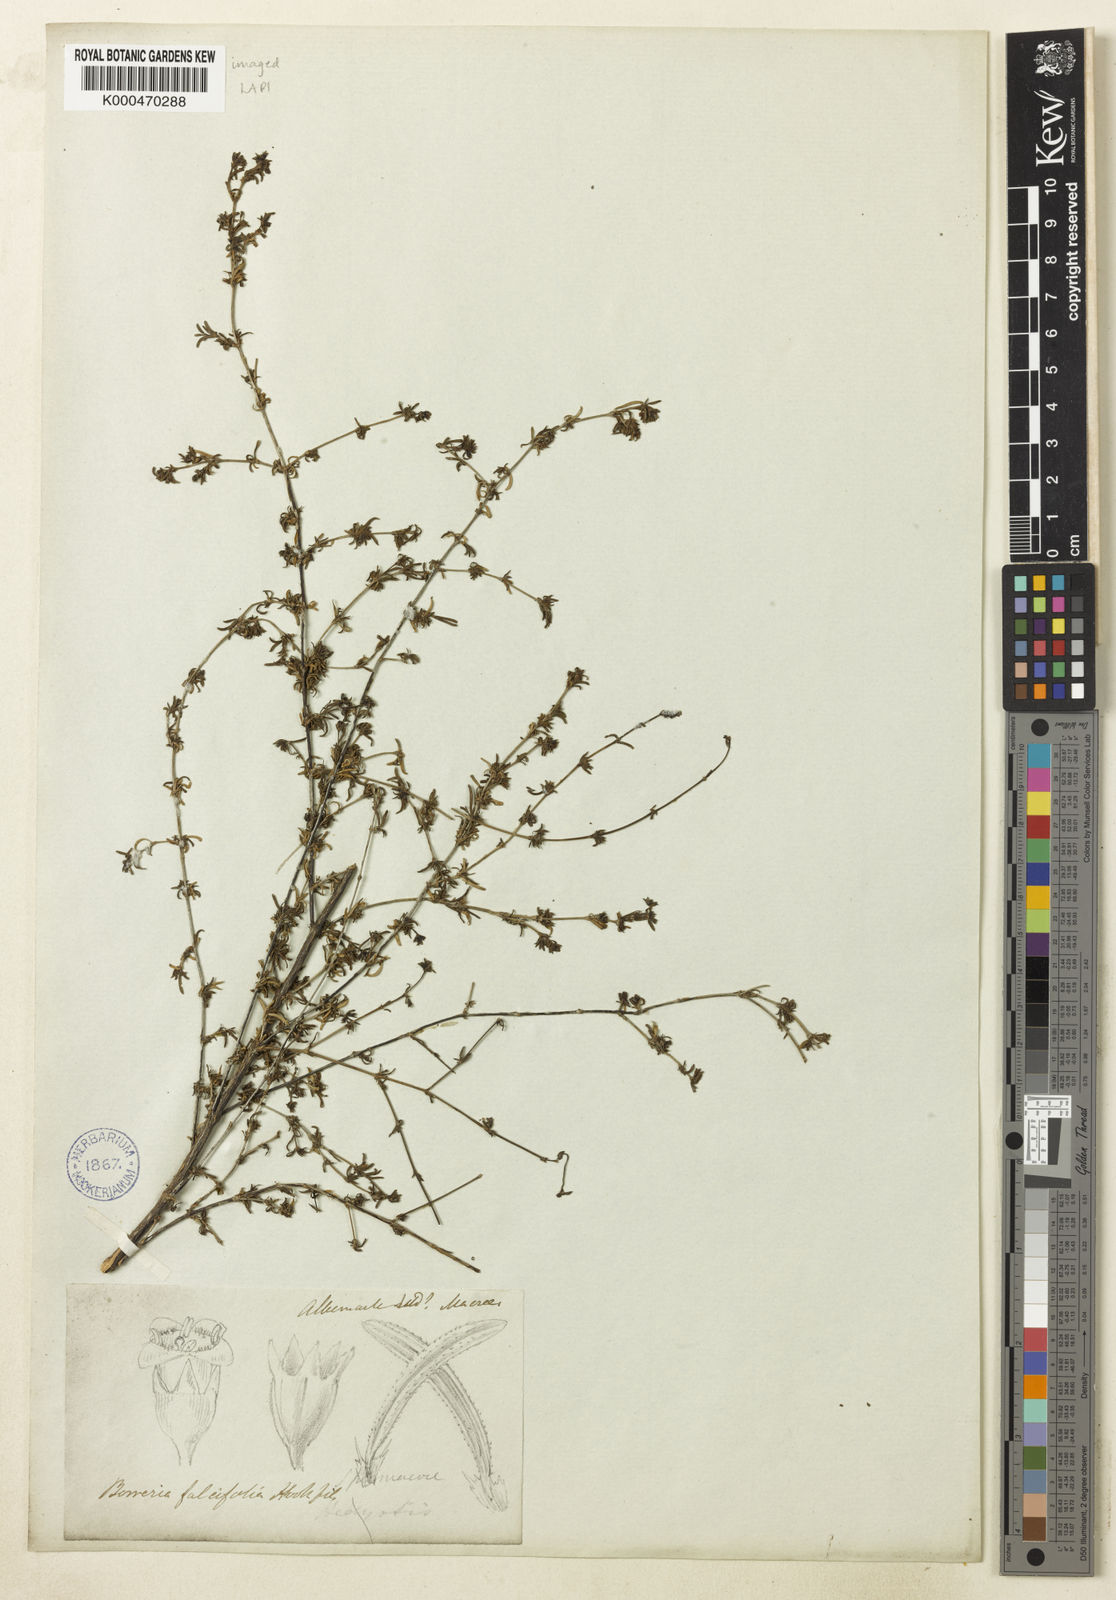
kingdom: Plantae
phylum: Tracheophyta
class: Magnoliopsida
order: Gentianales
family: Rubiaceae
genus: Spermacoce
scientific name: Spermacoce linearifolia
